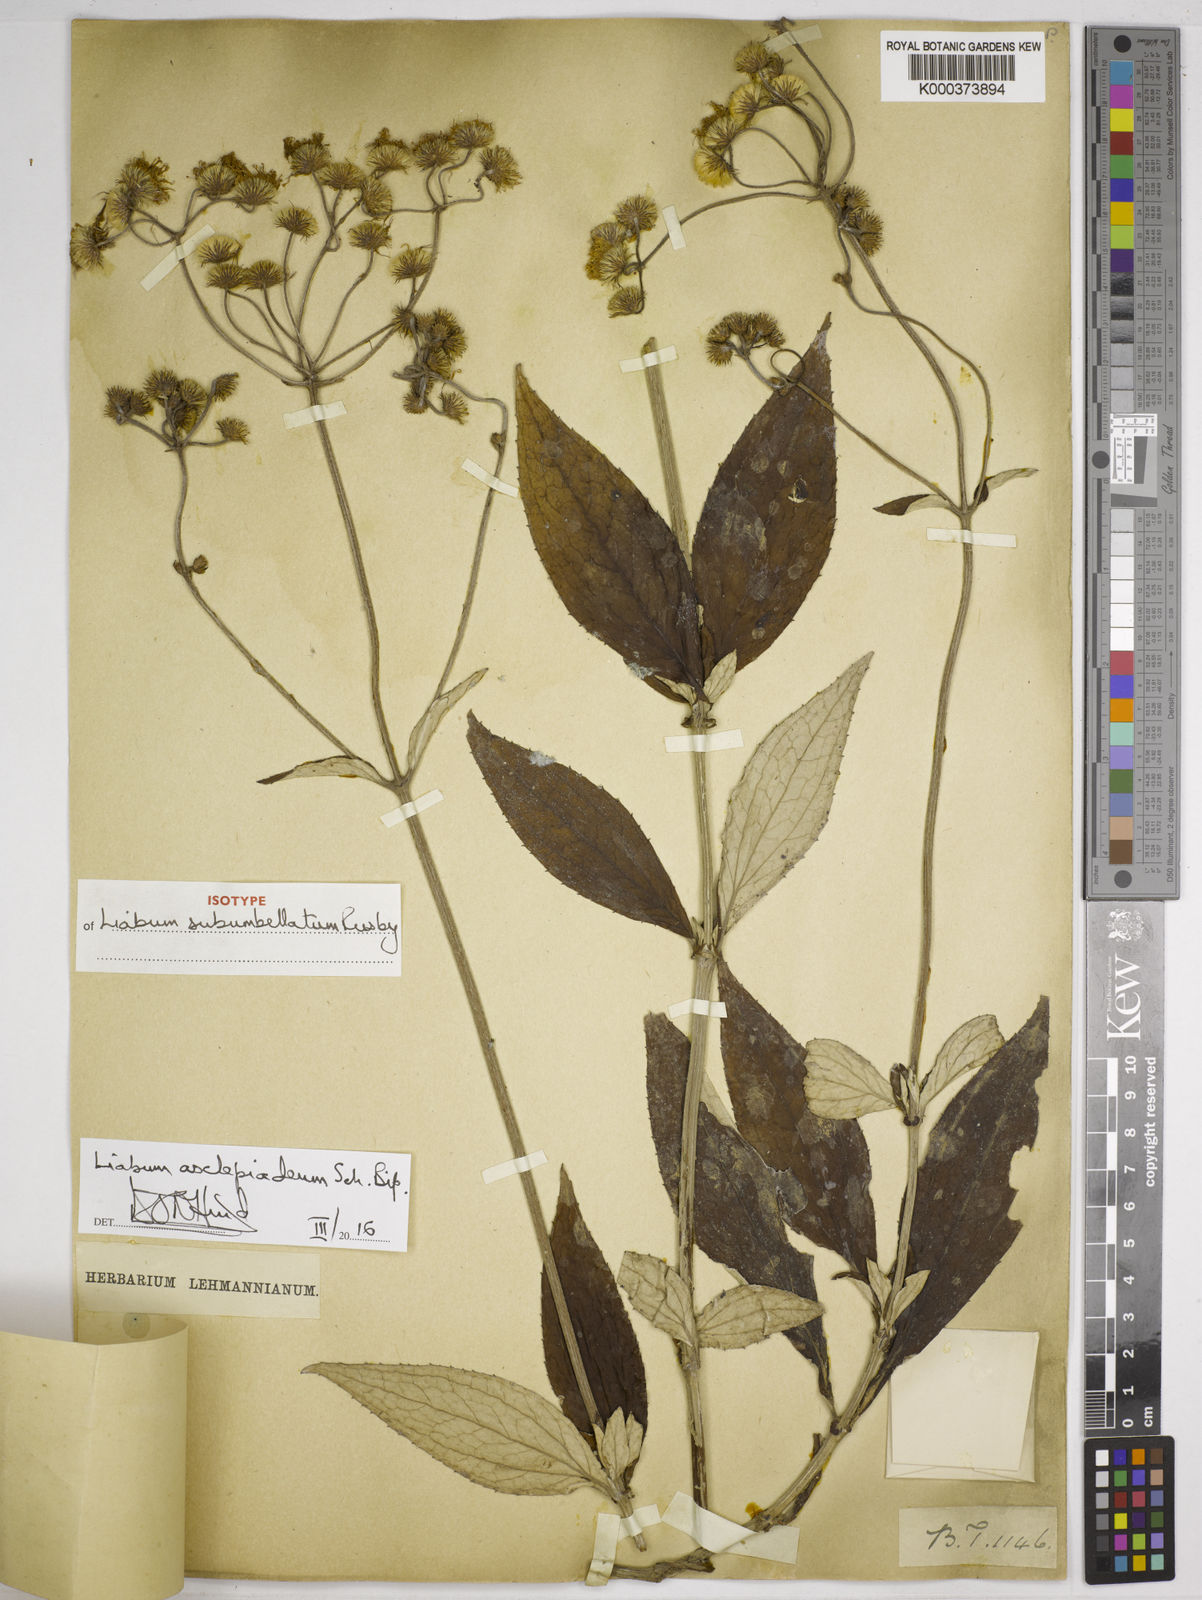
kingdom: Plantae
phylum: Tracheophyta
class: Magnoliopsida
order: Asterales
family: Asteraceae
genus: Liabum
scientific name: Liabum asclepiadeum
